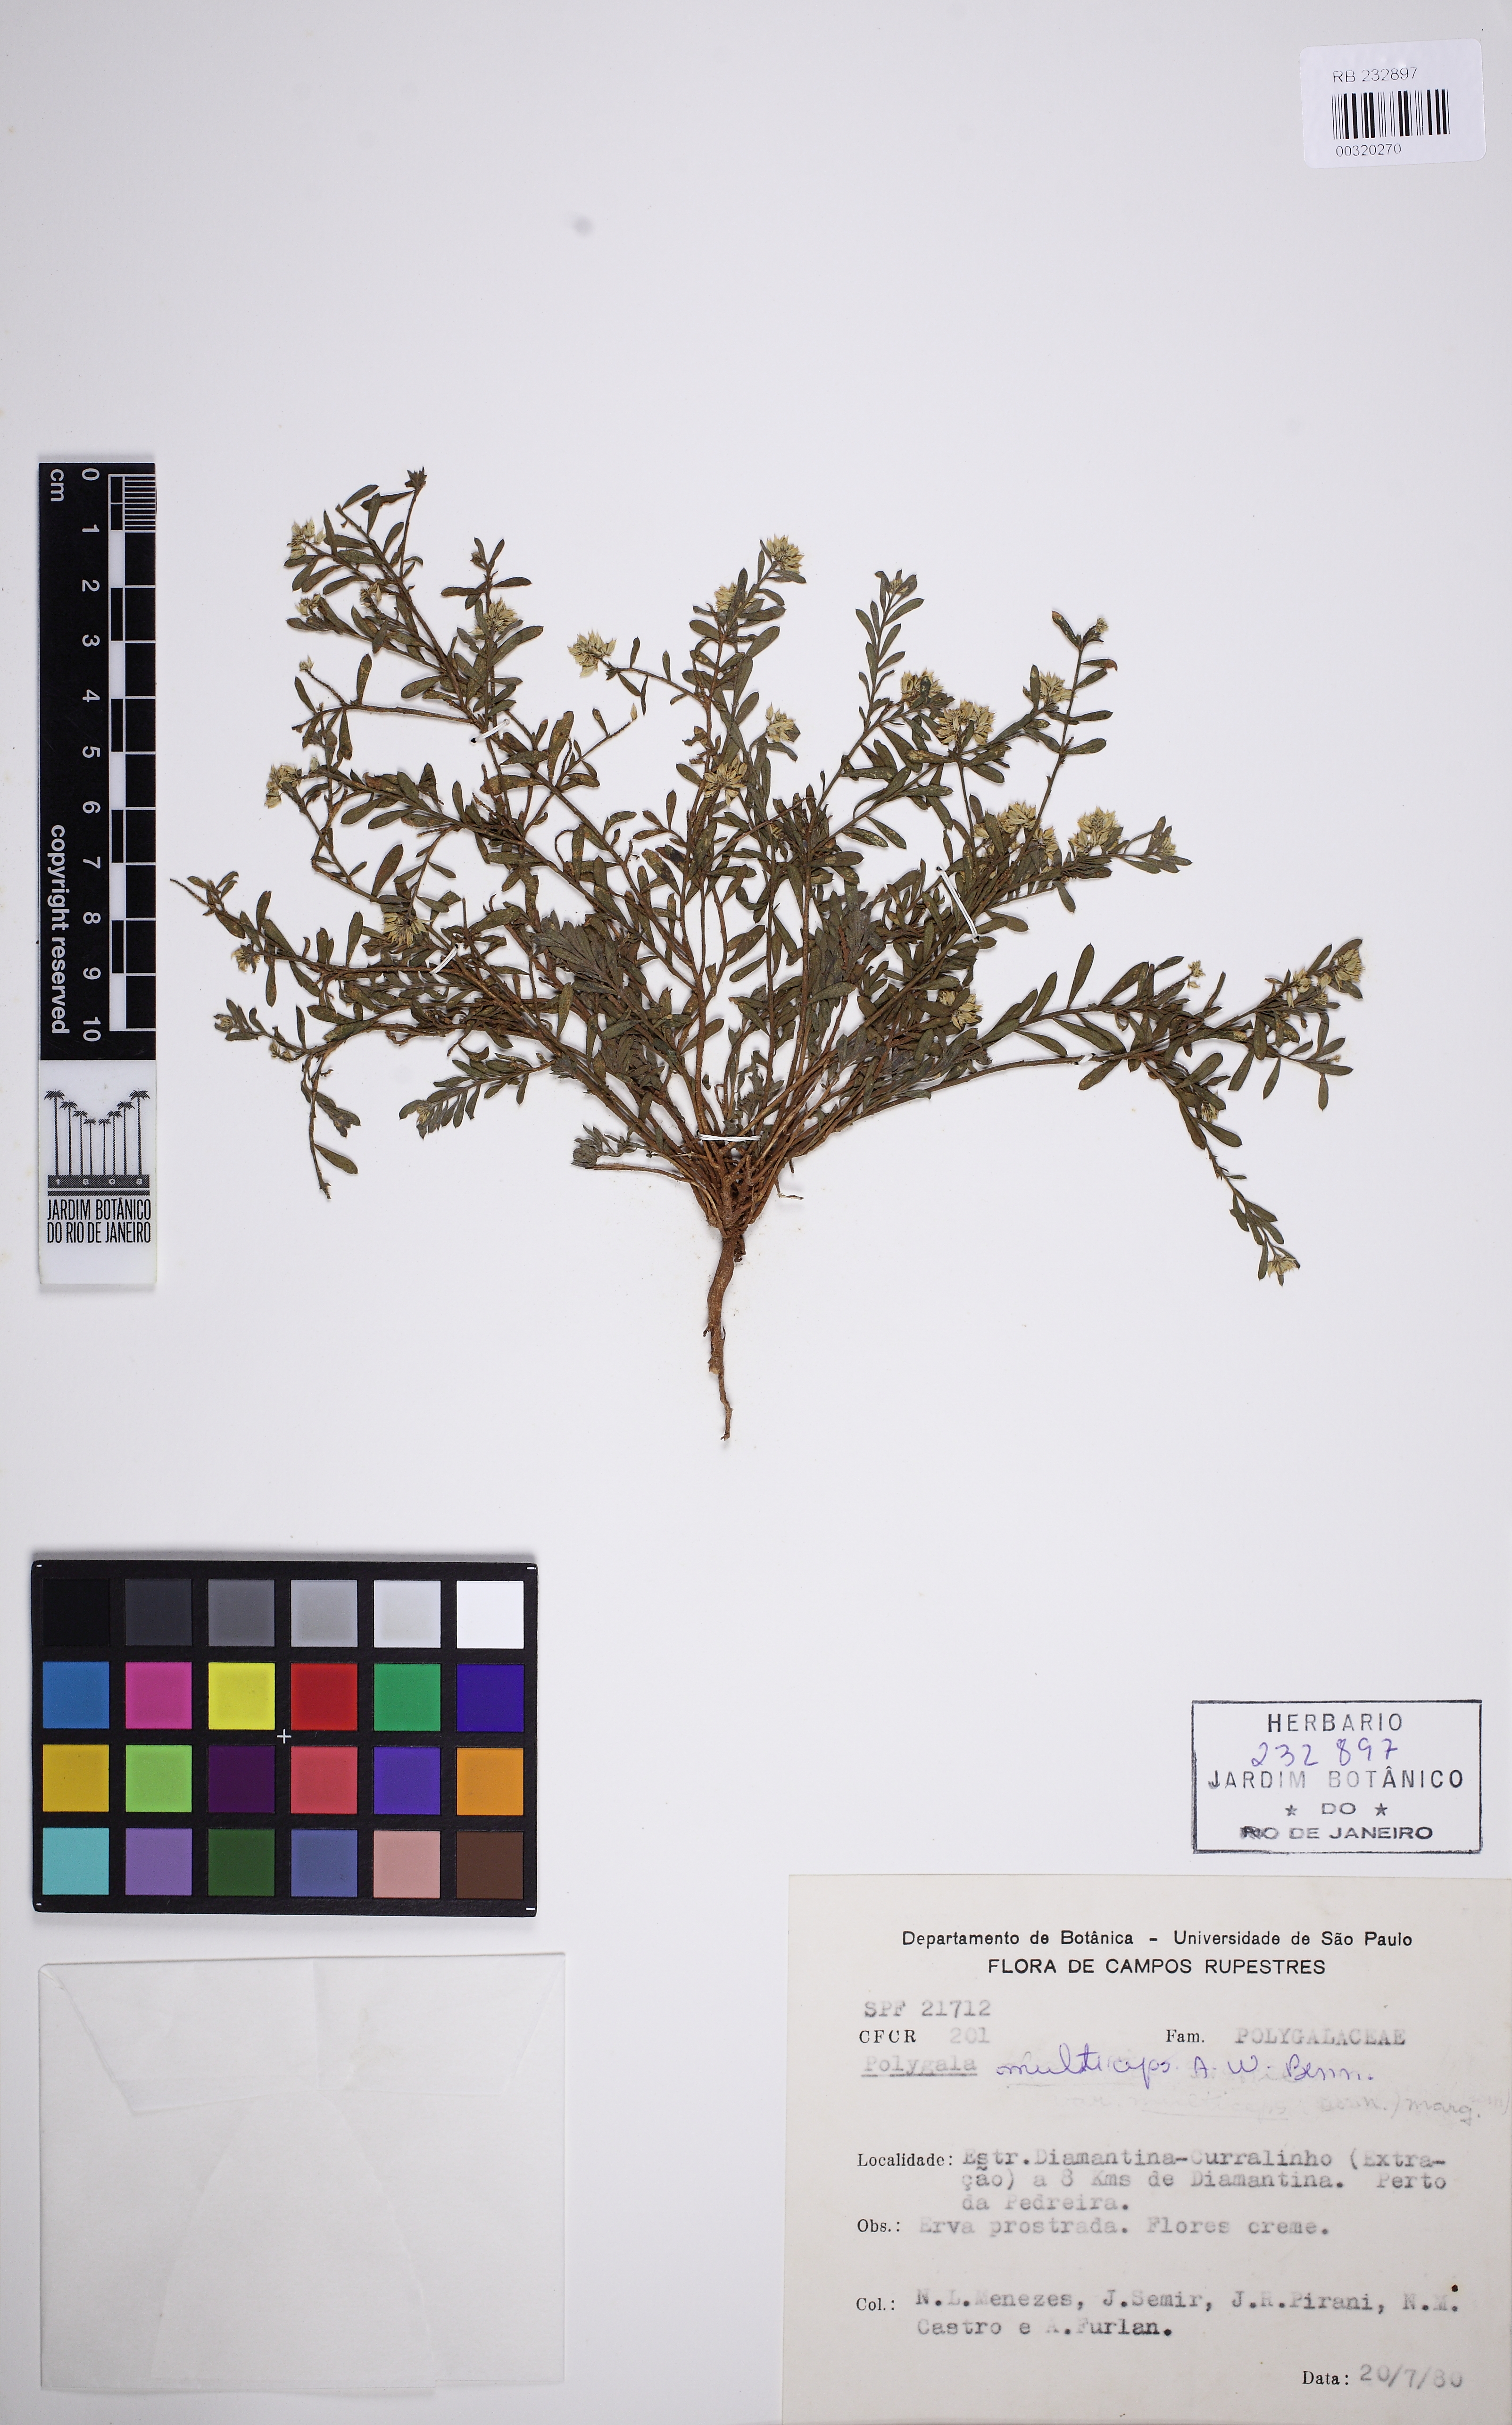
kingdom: Plantae
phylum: Tracheophyta
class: Magnoliopsida
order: Fabales
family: Polygalaceae
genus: Polygala
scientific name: Polygala multiceps
